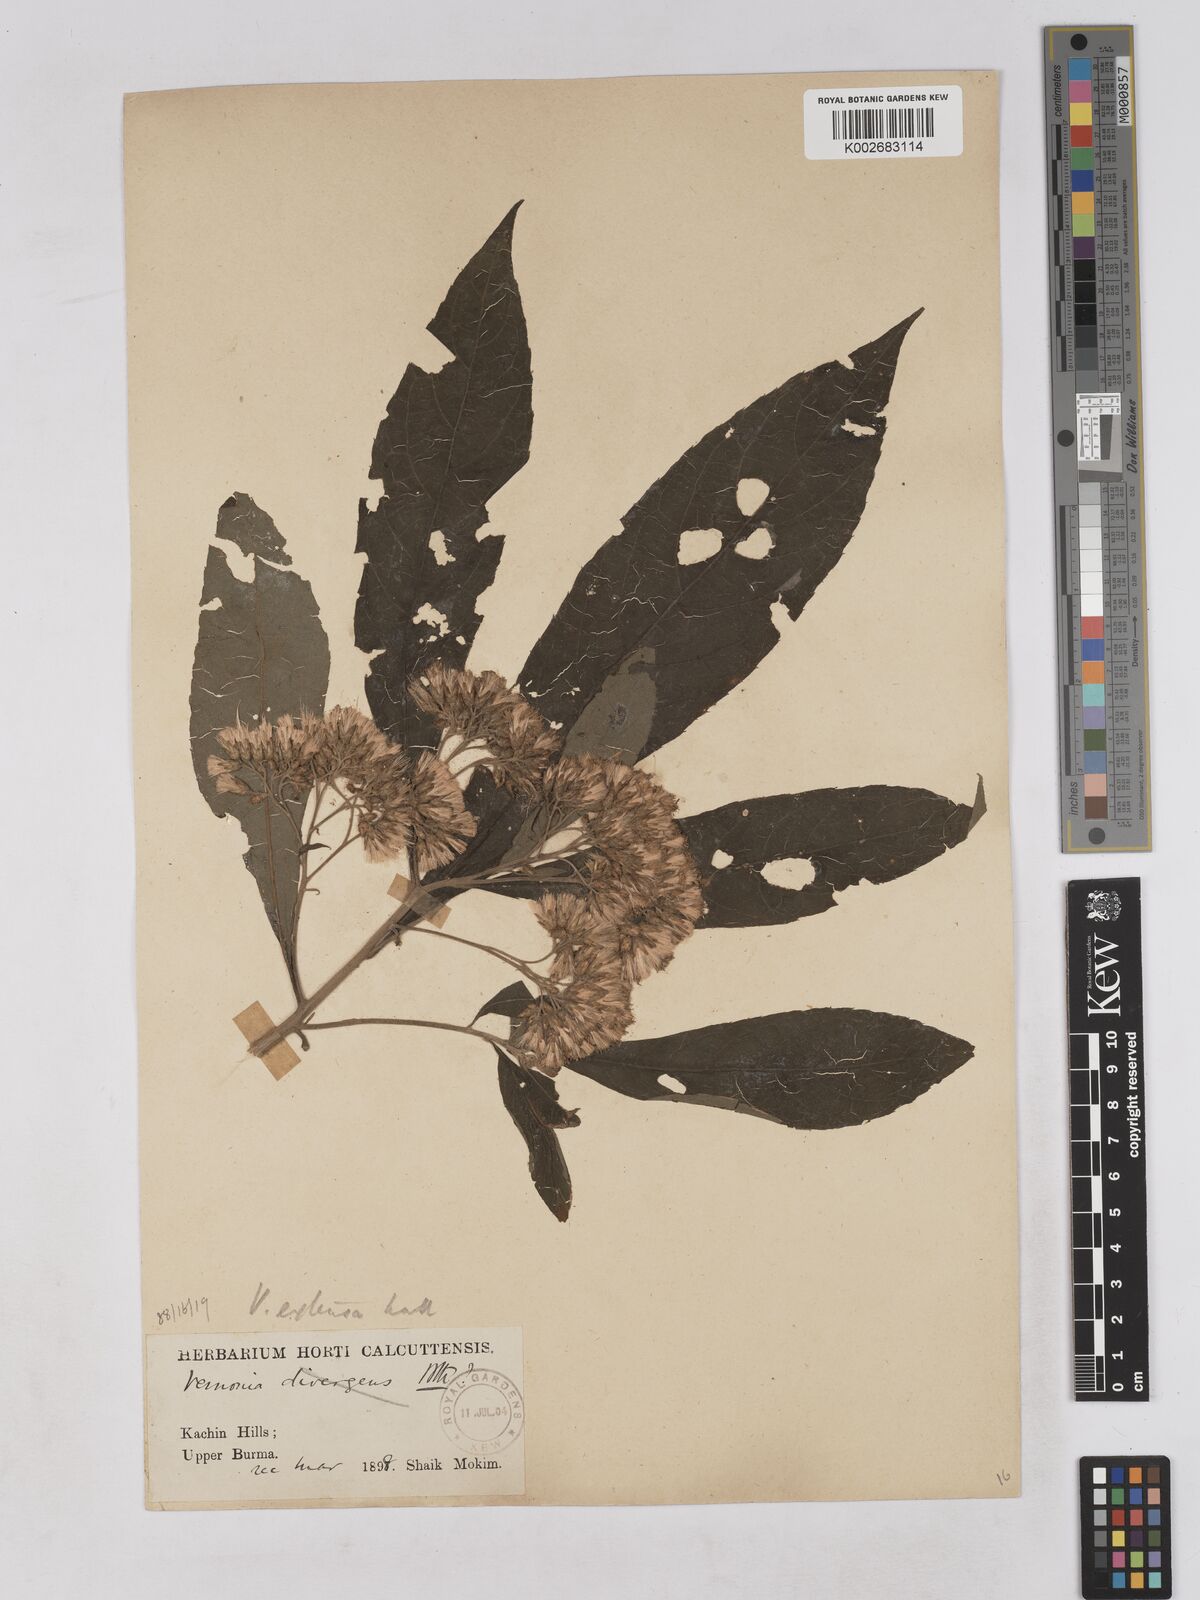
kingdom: Plantae
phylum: Tracheophyta
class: Magnoliopsida
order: Asterales
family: Asteraceae
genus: Gymnanthemum
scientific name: Gymnanthemum extensum
